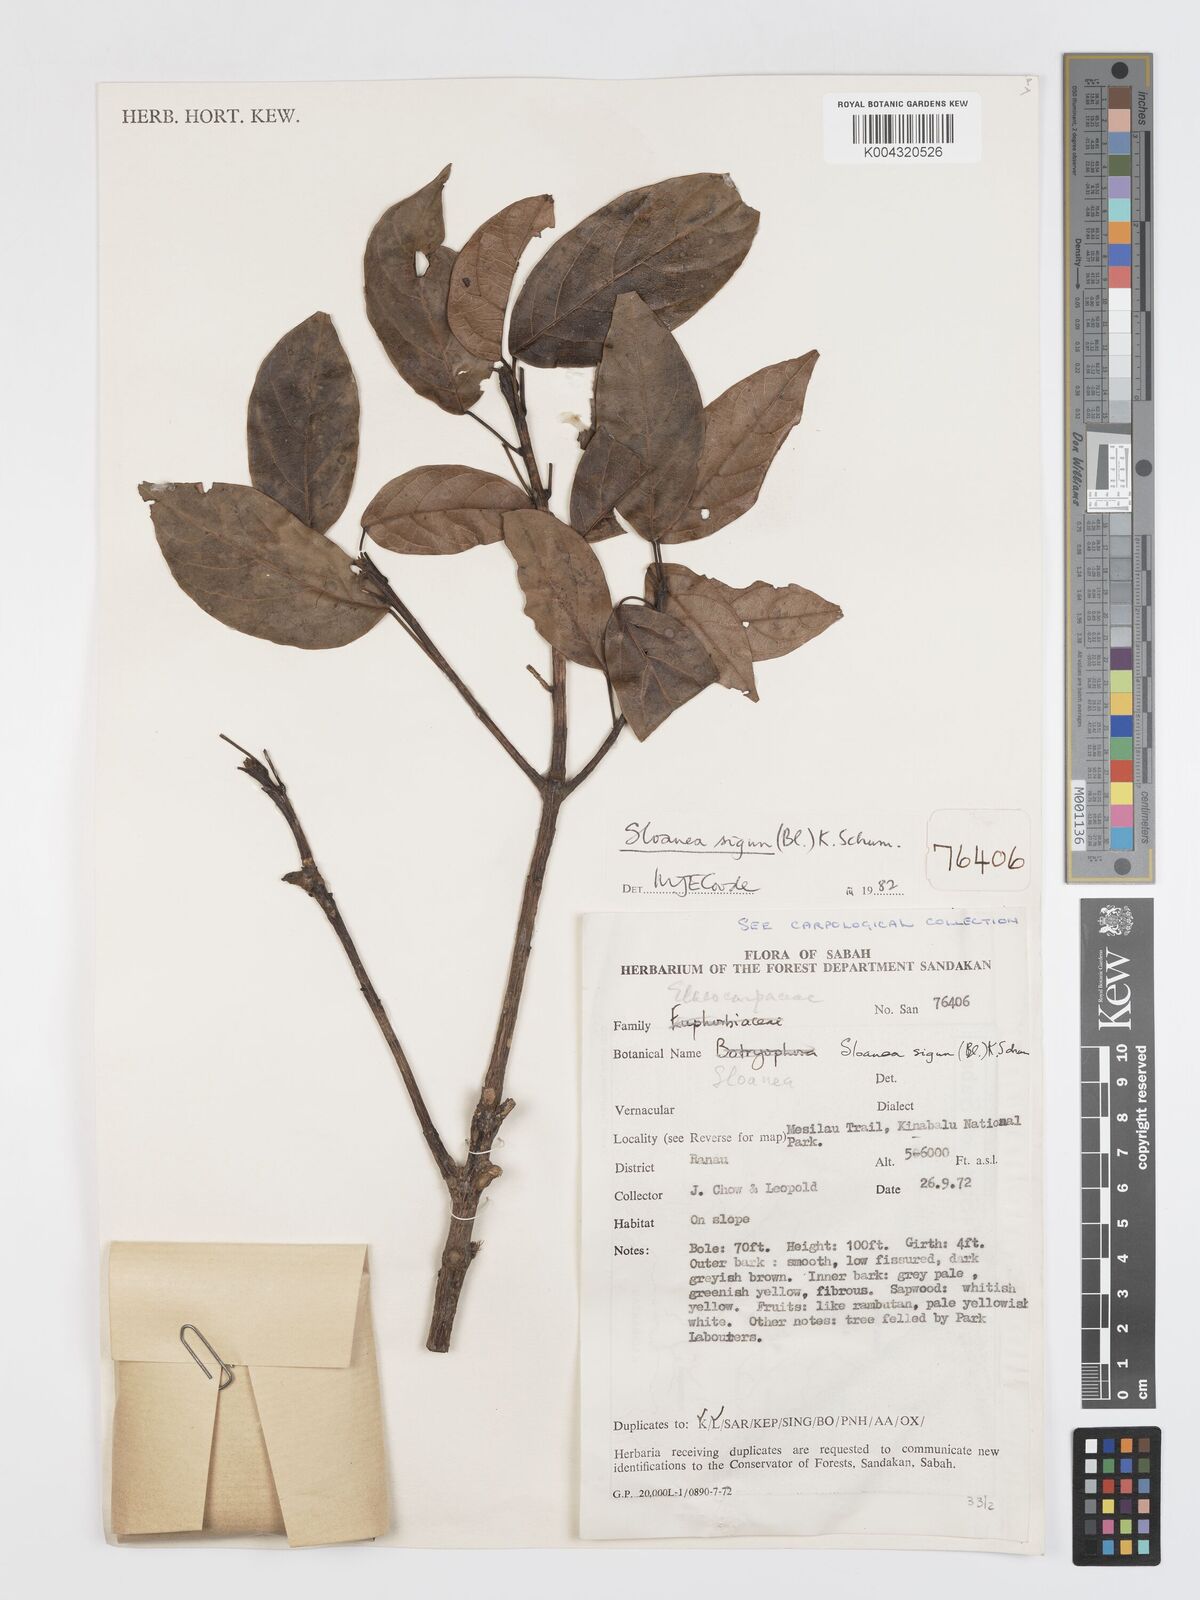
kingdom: Plantae
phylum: Tracheophyta
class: Magnoliopsida
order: Oxalidales
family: Elaeocarpaceae
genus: Sloanea
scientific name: Sloanea sigun
